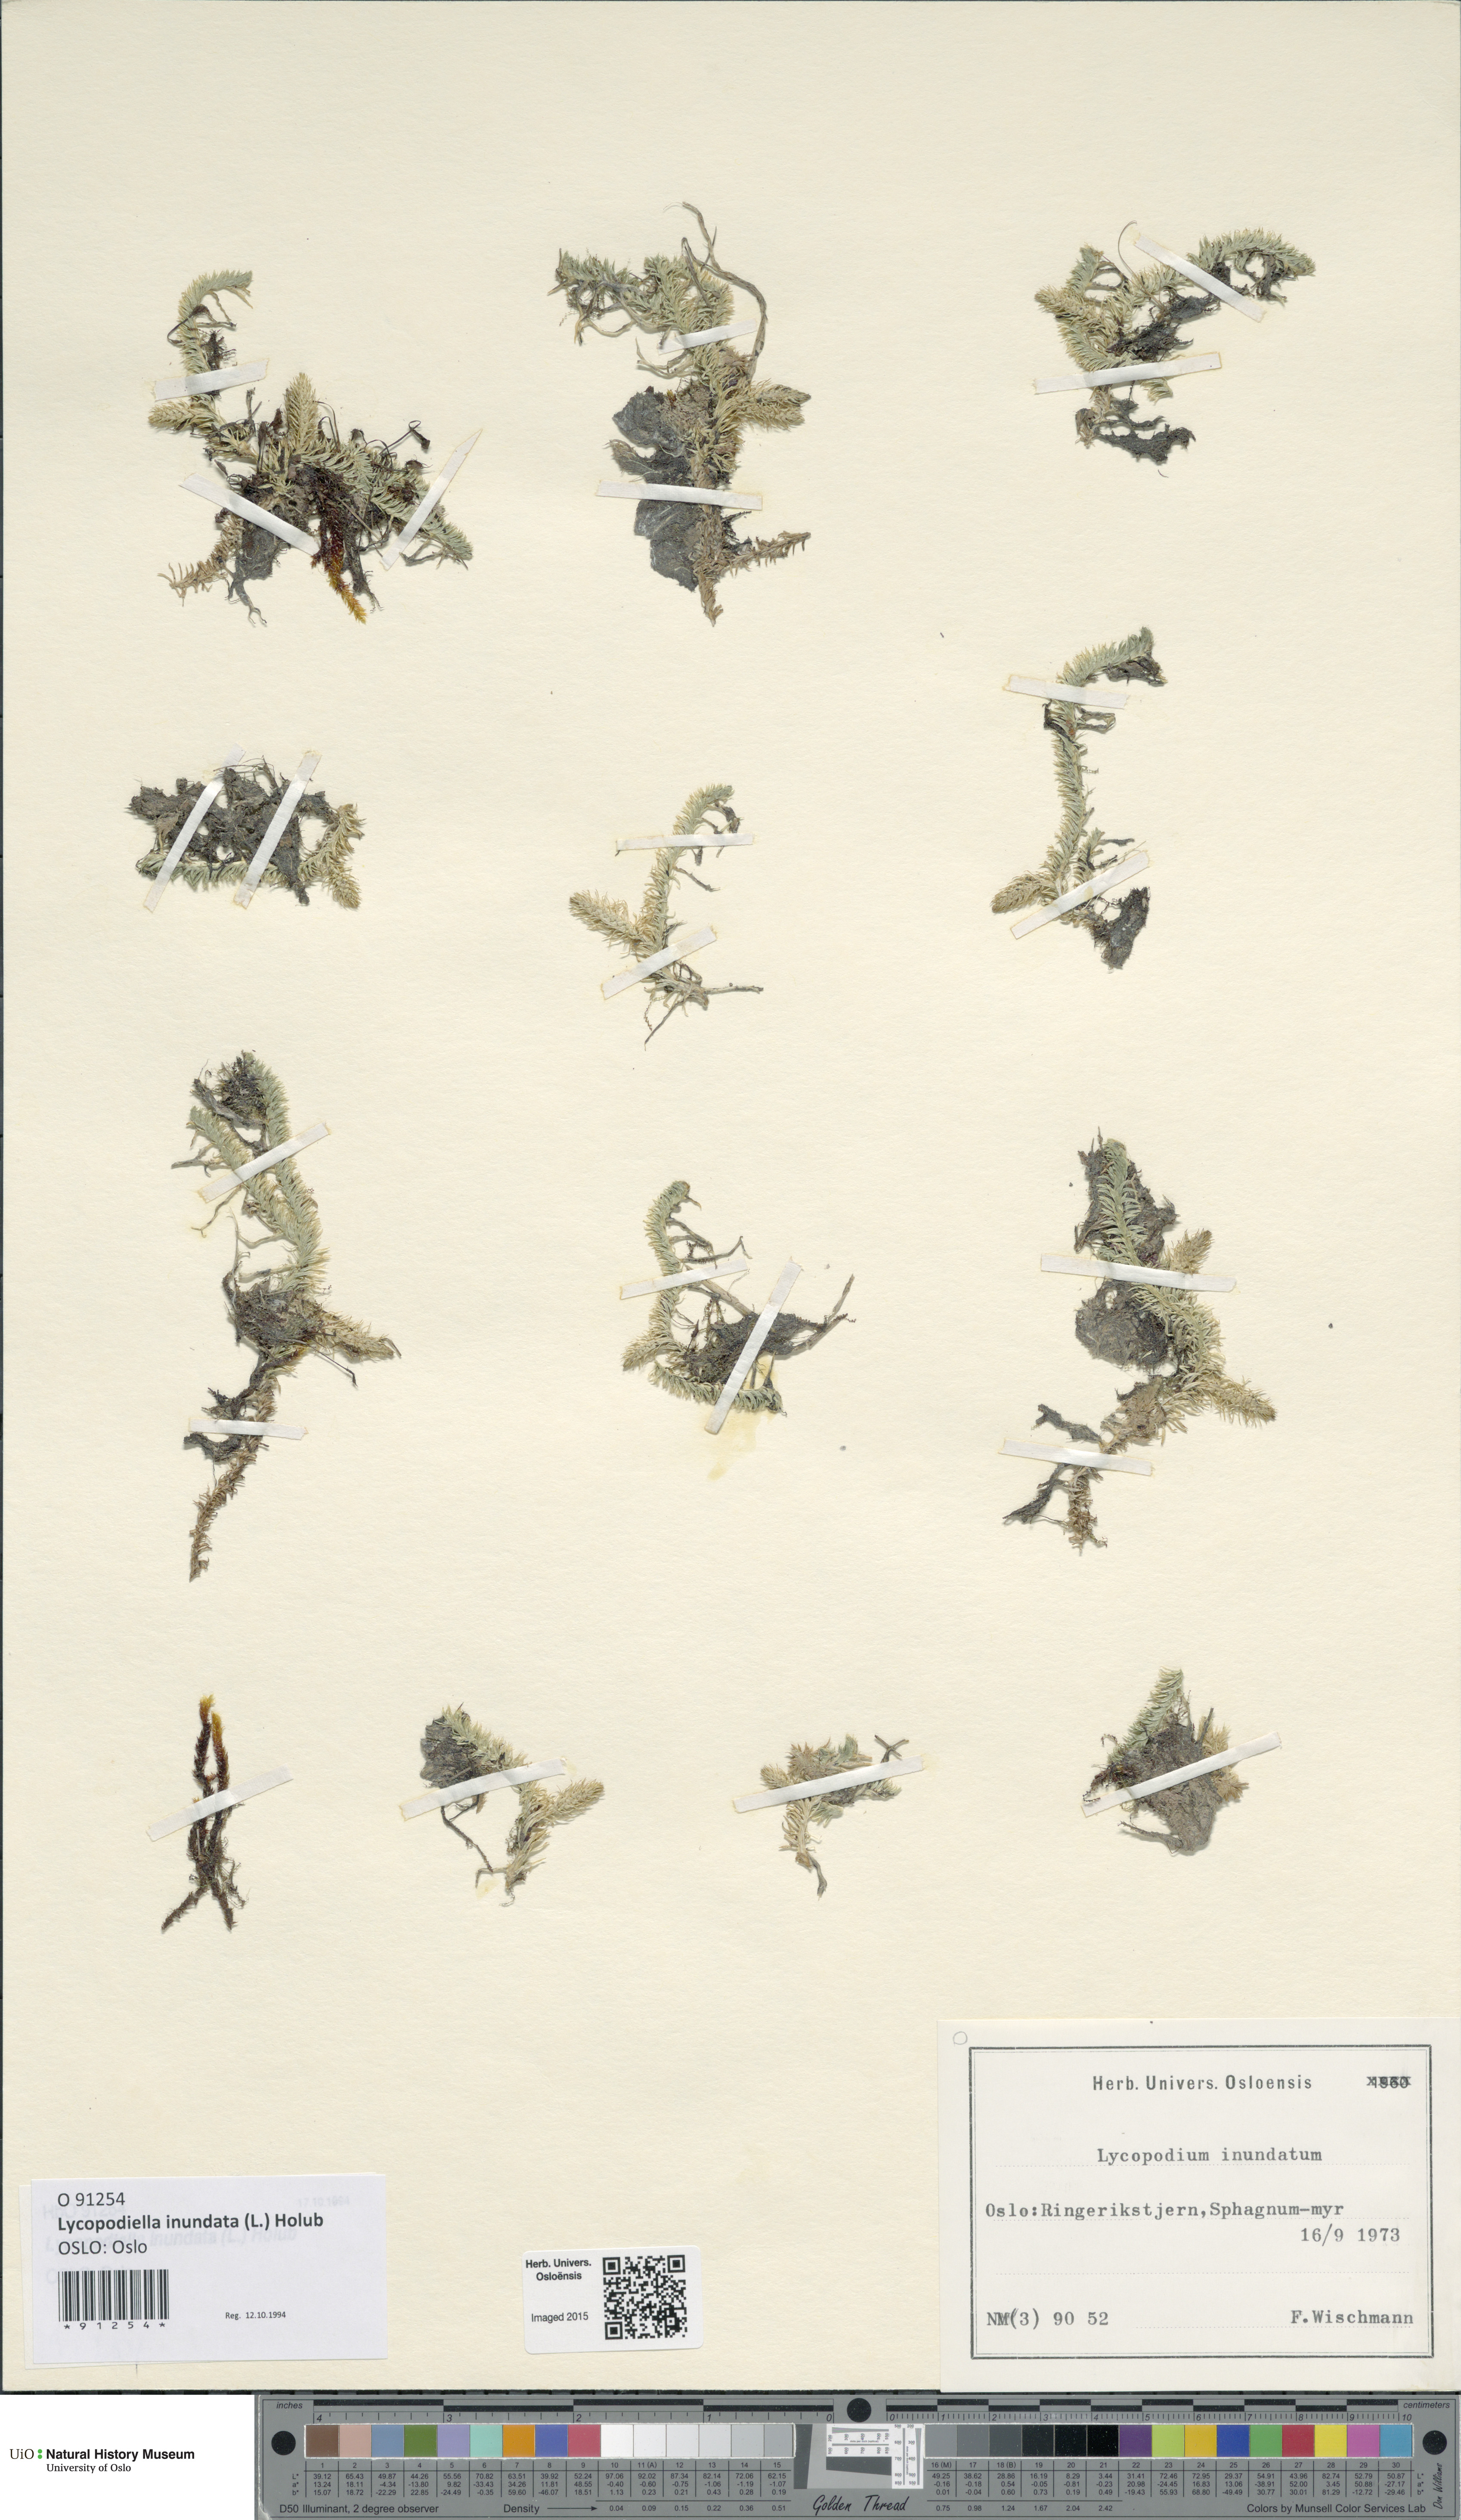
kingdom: Plantae
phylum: Tracheophyta
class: Lycopodiopsida
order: Lycopodiales
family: Lycopodiaceae
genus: Lycopodiella
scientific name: Lycopodiella inundata
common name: Marsh clubmoss
